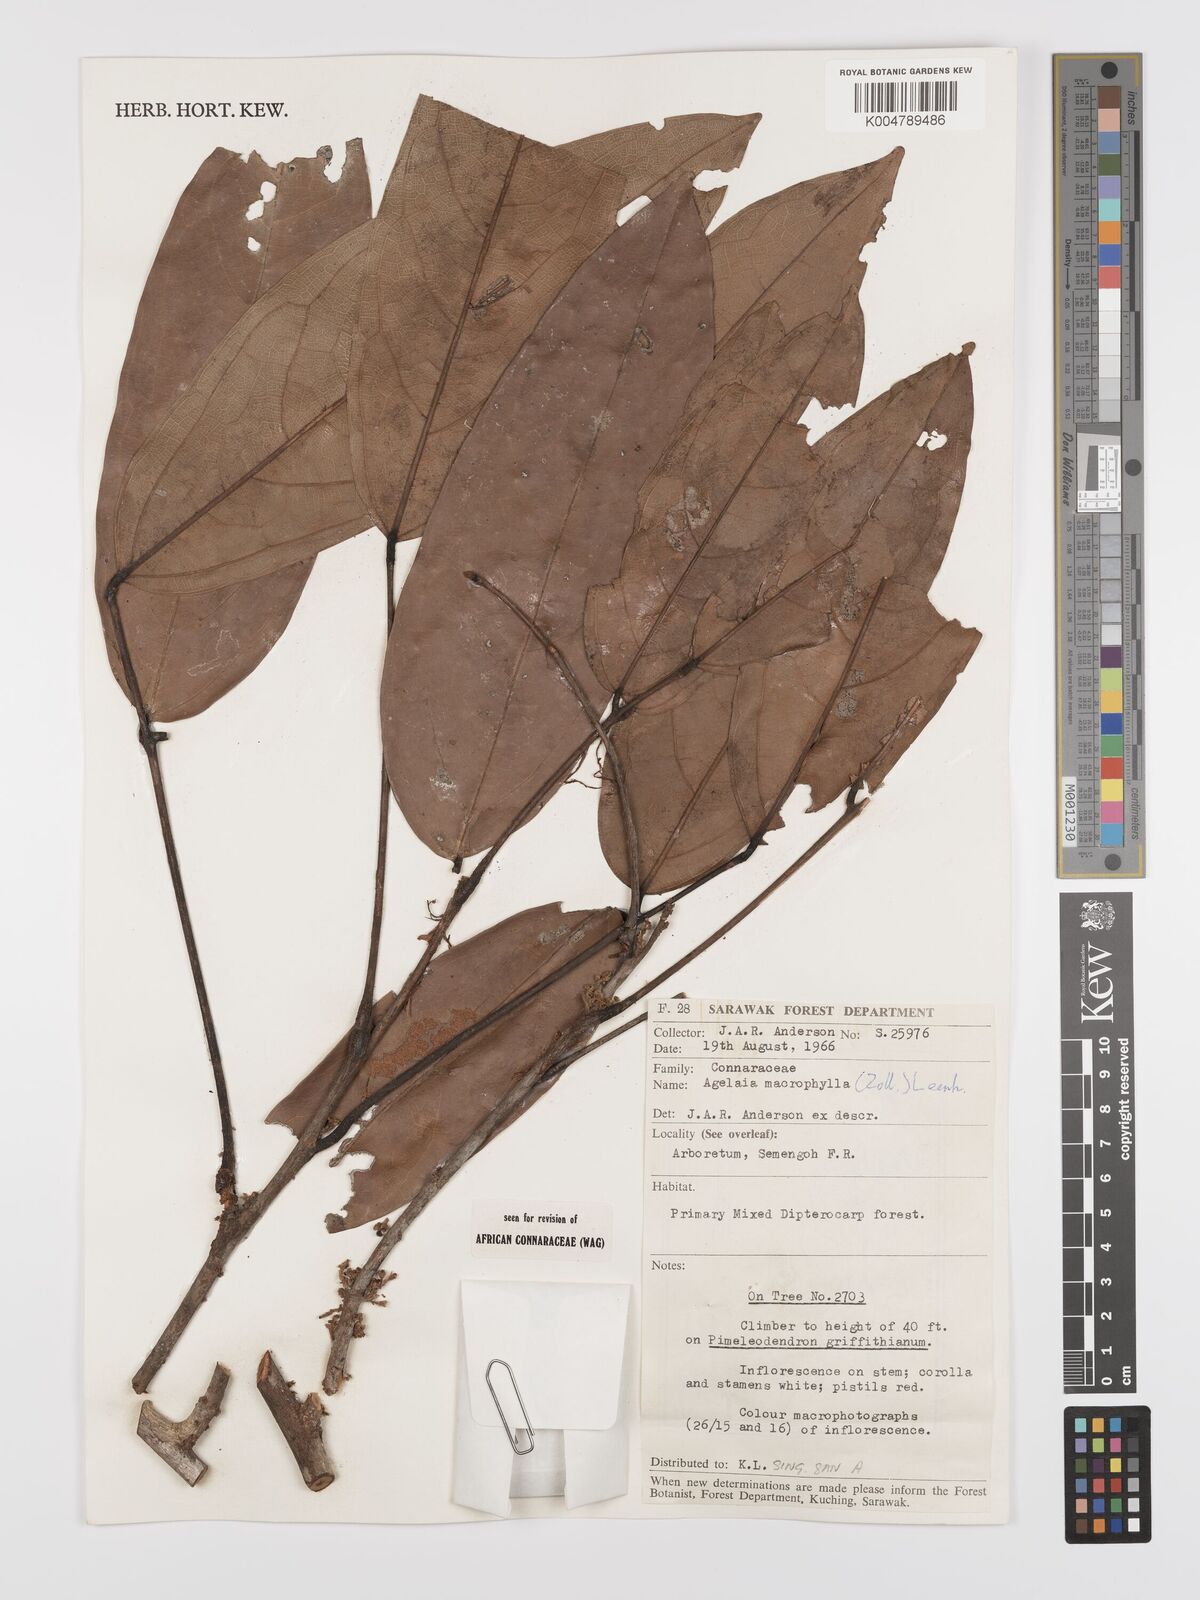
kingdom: Plantae
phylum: Tracheophyta
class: Magnoliopsida
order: Oxalidales
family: Connaraceae
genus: Agelaea
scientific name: Agelaea macrophylla
